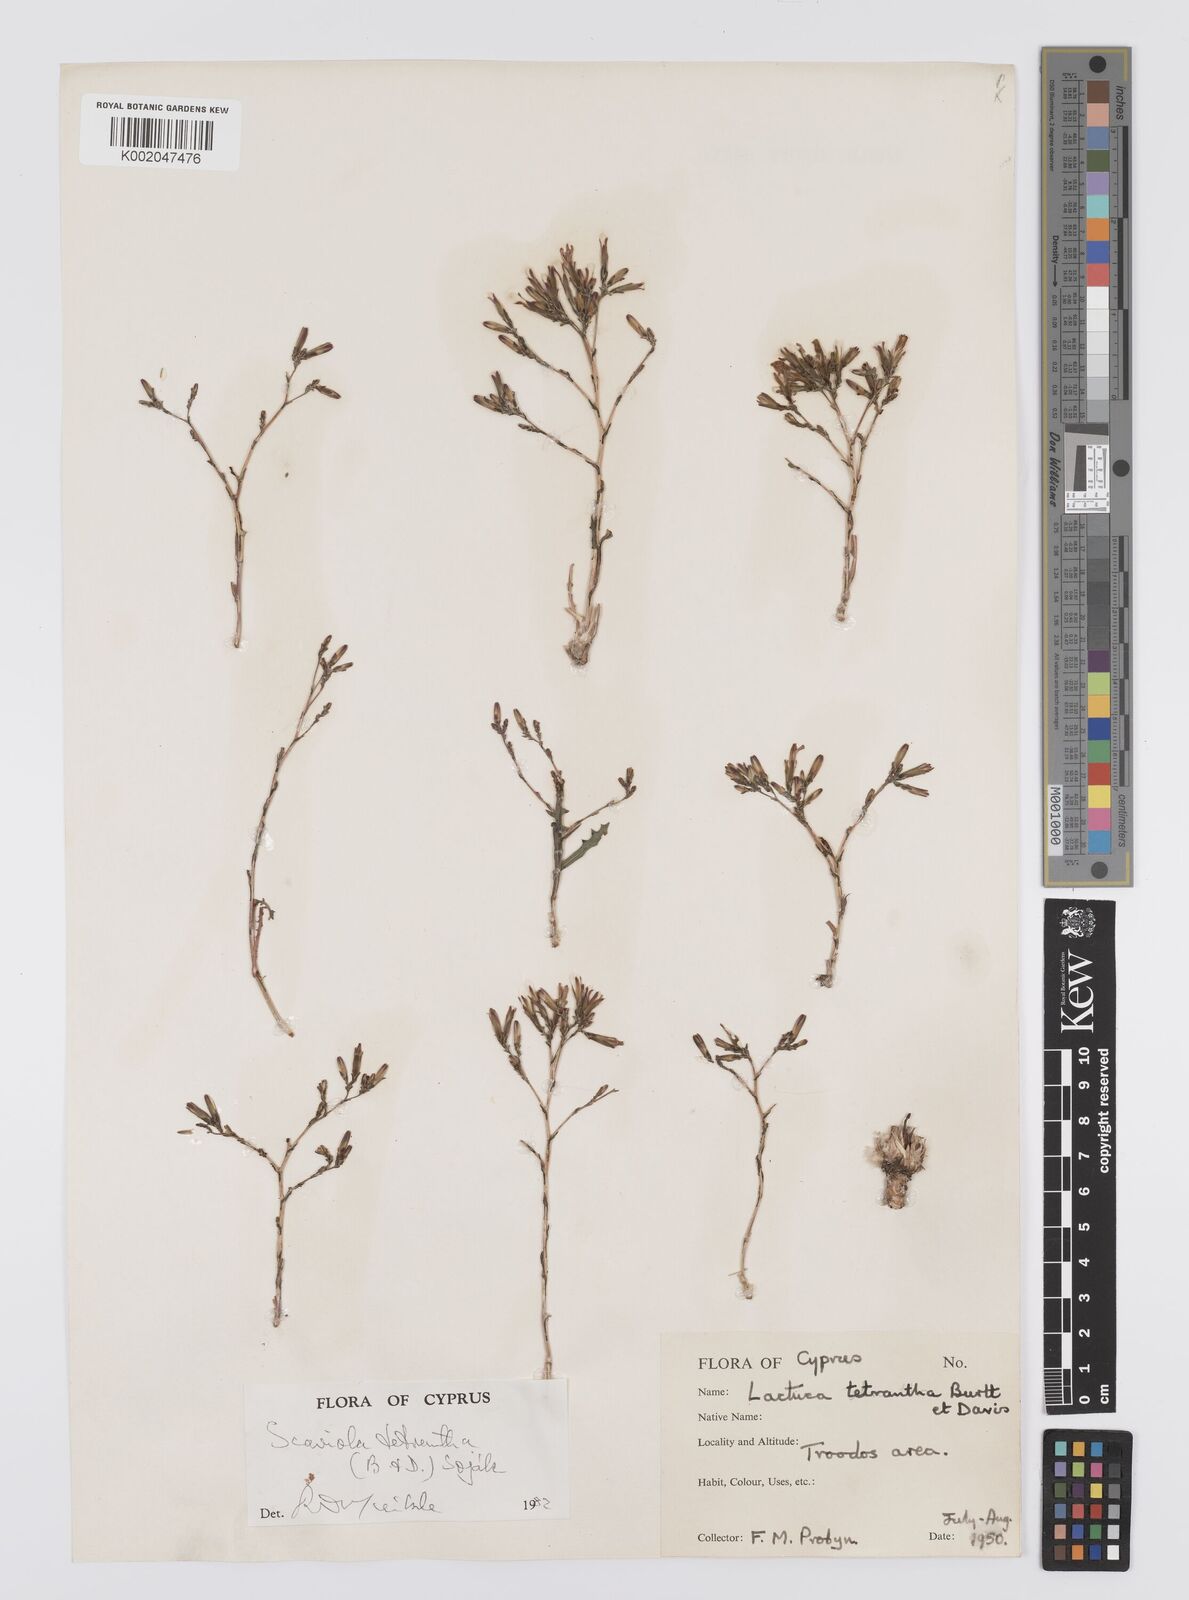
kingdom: Plantae
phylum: Tracheophyta
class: Magnoliopsida
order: Asterales
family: Asteraceae
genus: Lactuca
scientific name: Lactuca tetrantha
